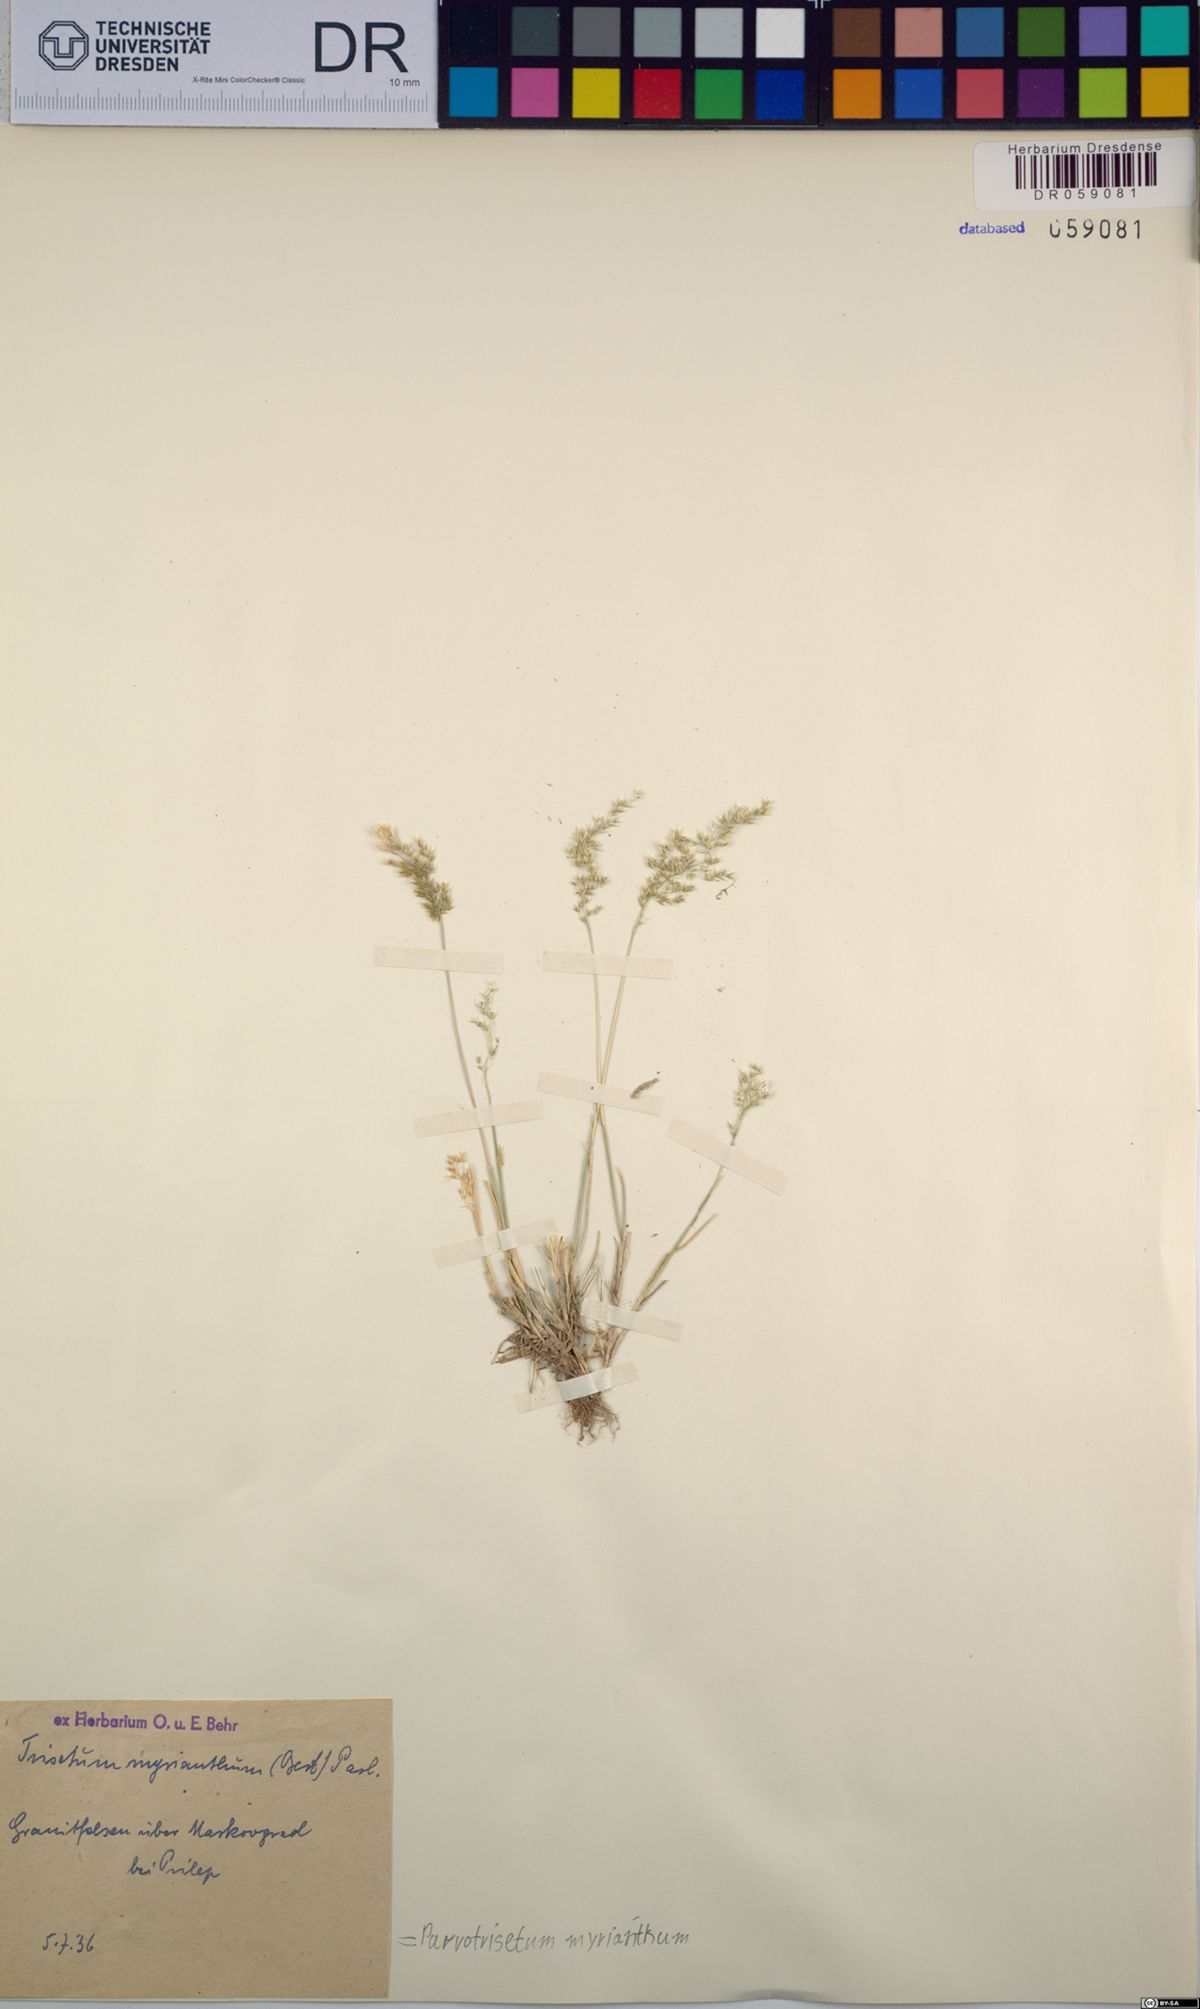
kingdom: Plantae
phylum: Tracheophyta
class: Liliopsida
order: Poales
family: Poaceae
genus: Parvotrisetum
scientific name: Parvotrisetum myrianthum
